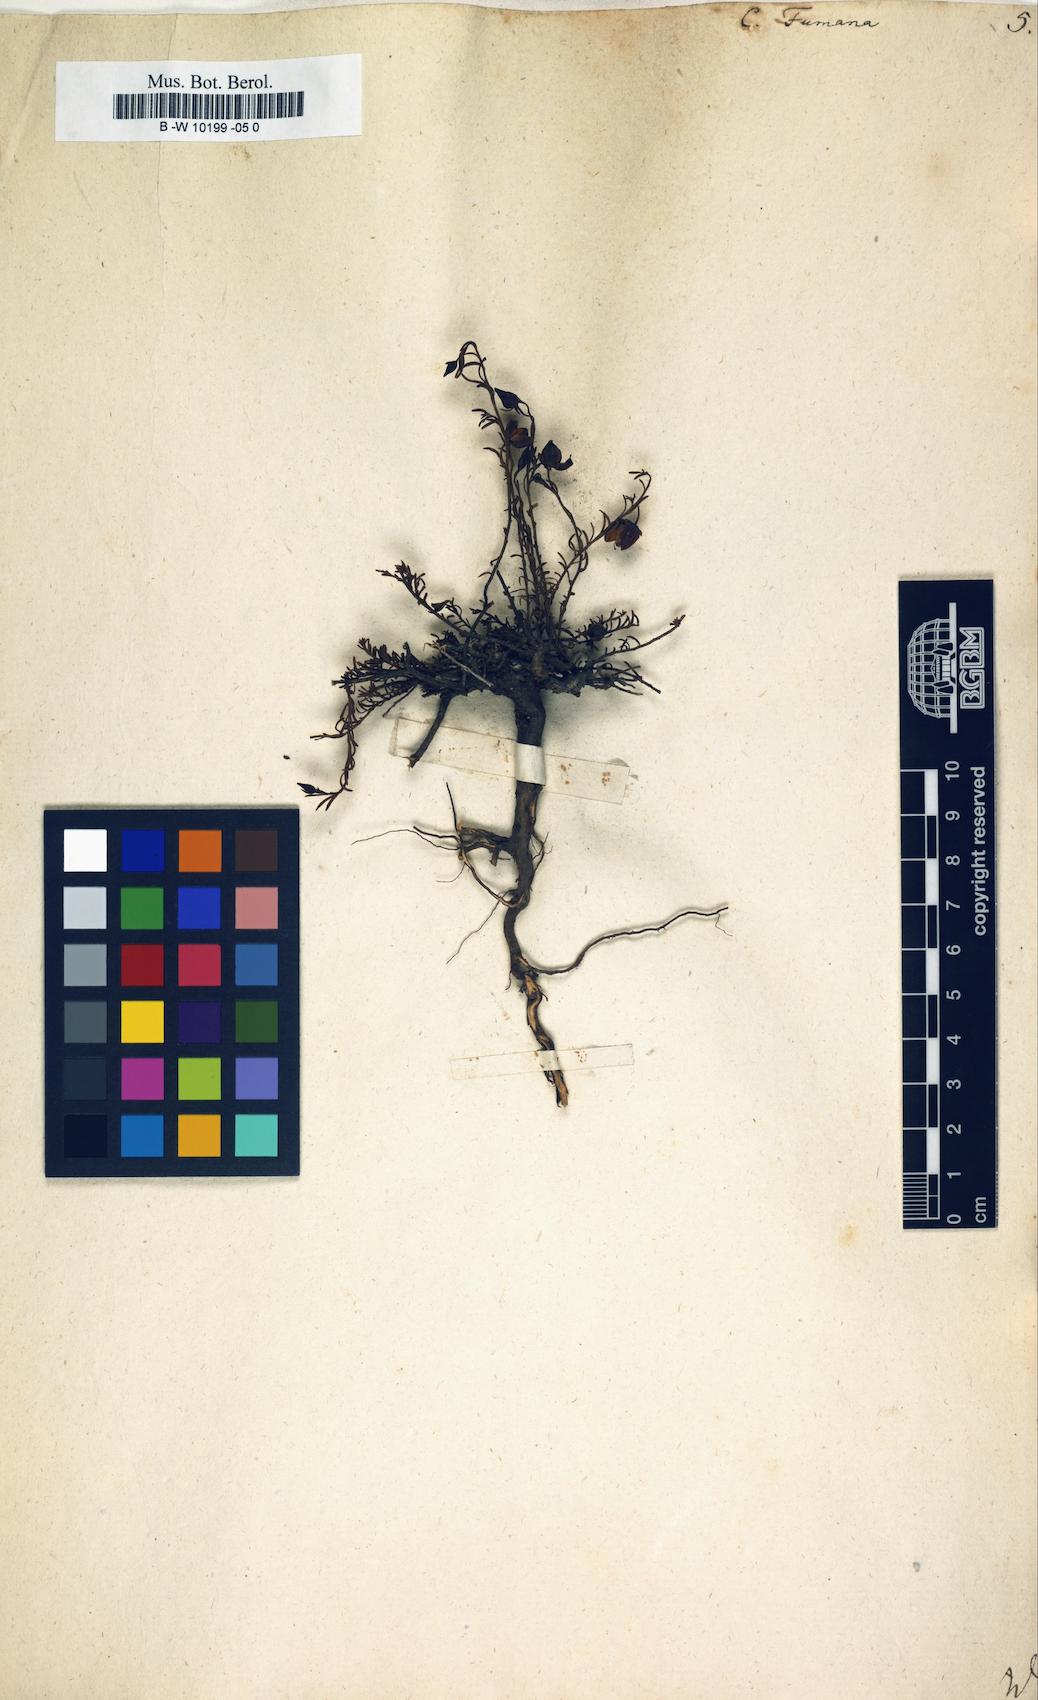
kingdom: Plantae
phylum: Tracheophyta
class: Magnoliopsida
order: Malvales
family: Cistaceae
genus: Fumana
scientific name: Fumana procumbens
